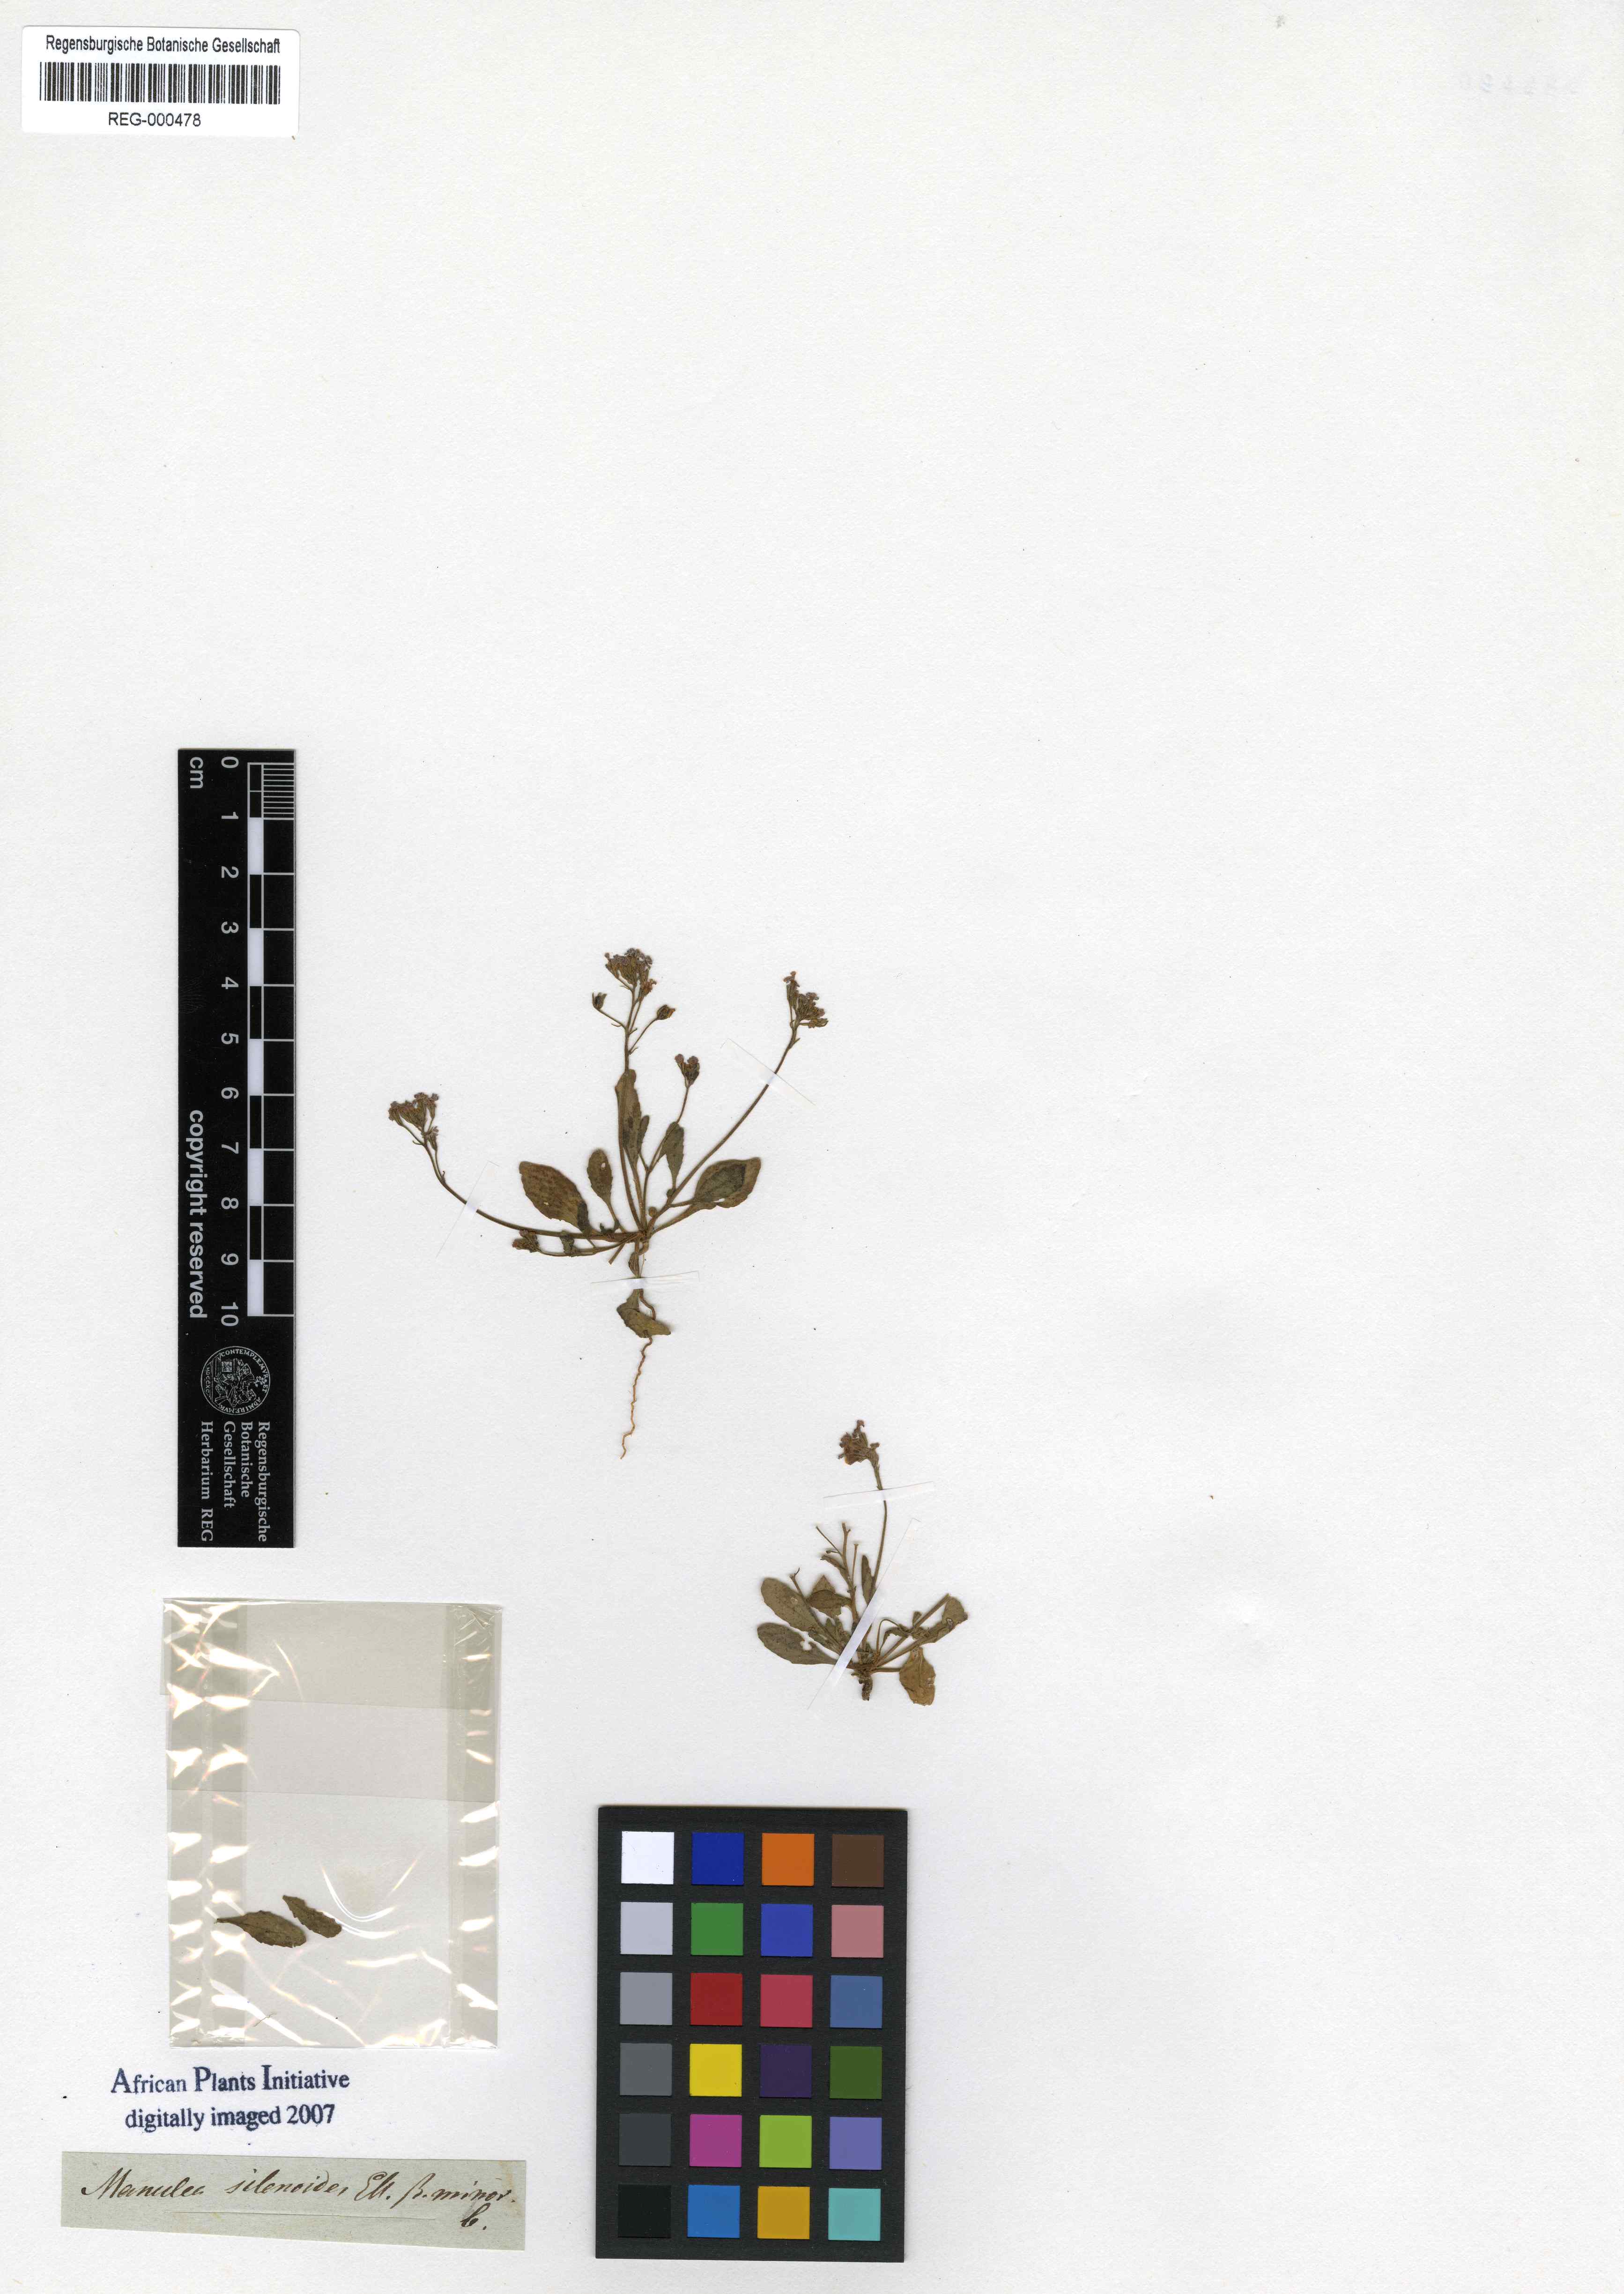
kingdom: Plantae
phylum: Tracheophyta
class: Magnoliopsida
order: Lamiales
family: Scrophulariaceae
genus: Manulea
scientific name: Manulea silenoides
